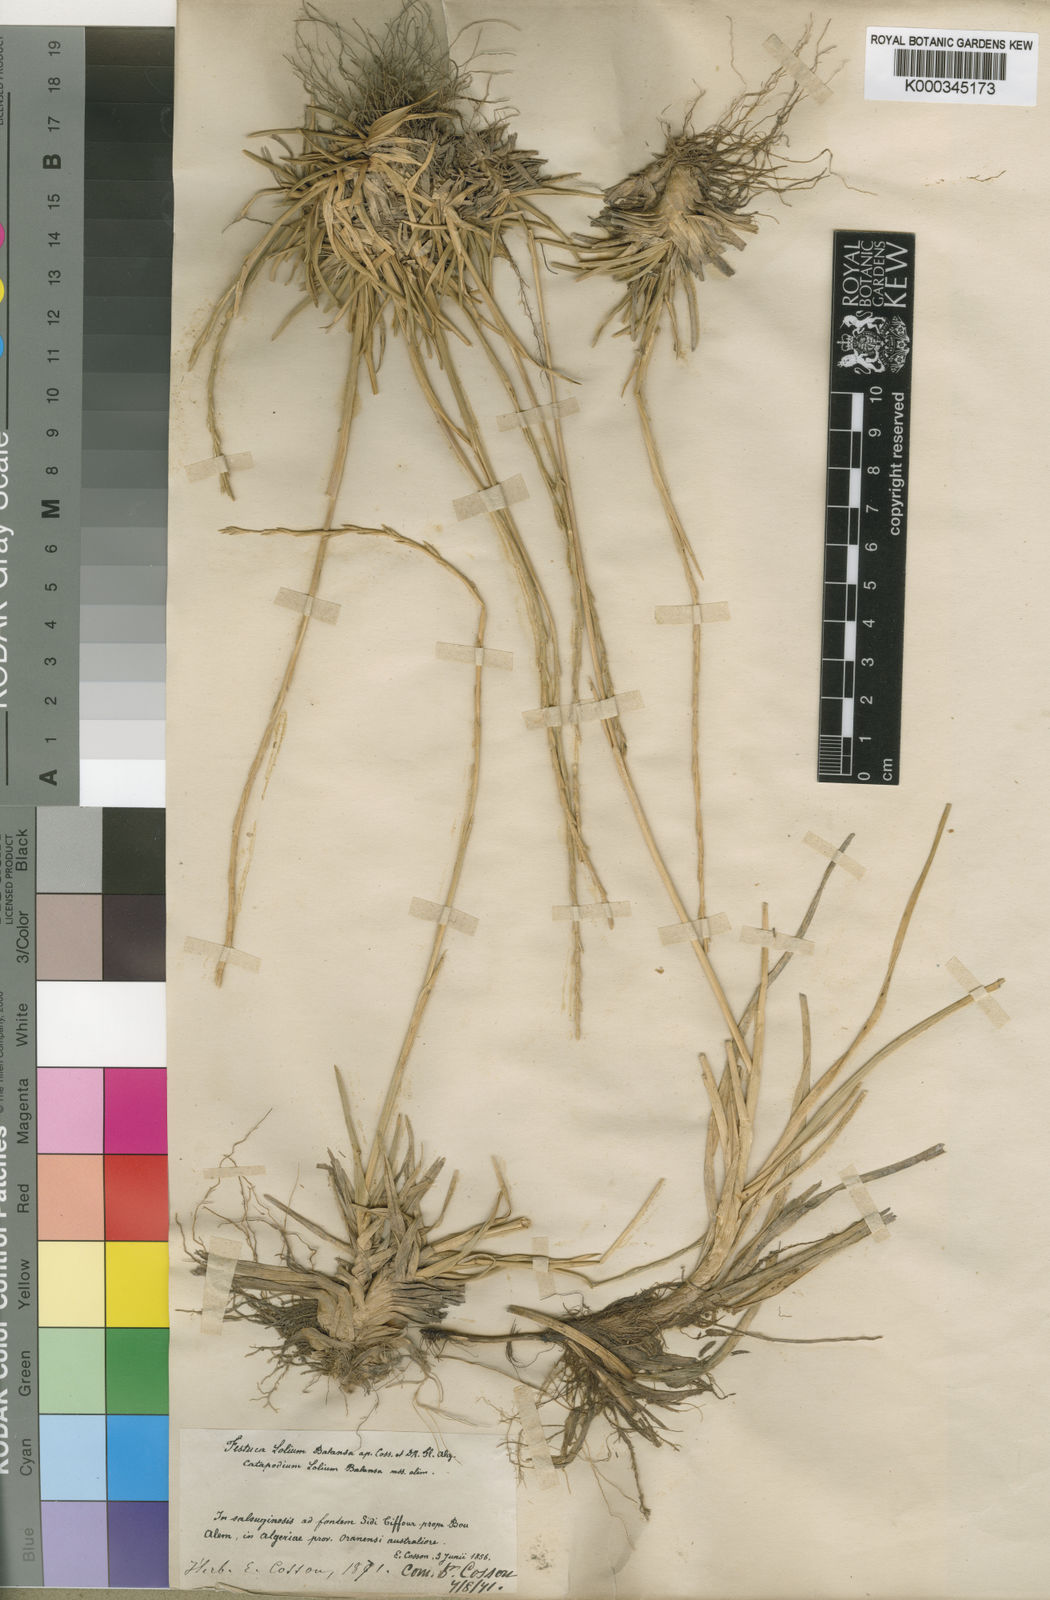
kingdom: Plantae
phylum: Tracheophyta
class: Liliopsida
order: Poales
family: Poaceae
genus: Agropyropsis
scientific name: Agropyropsis lolium
